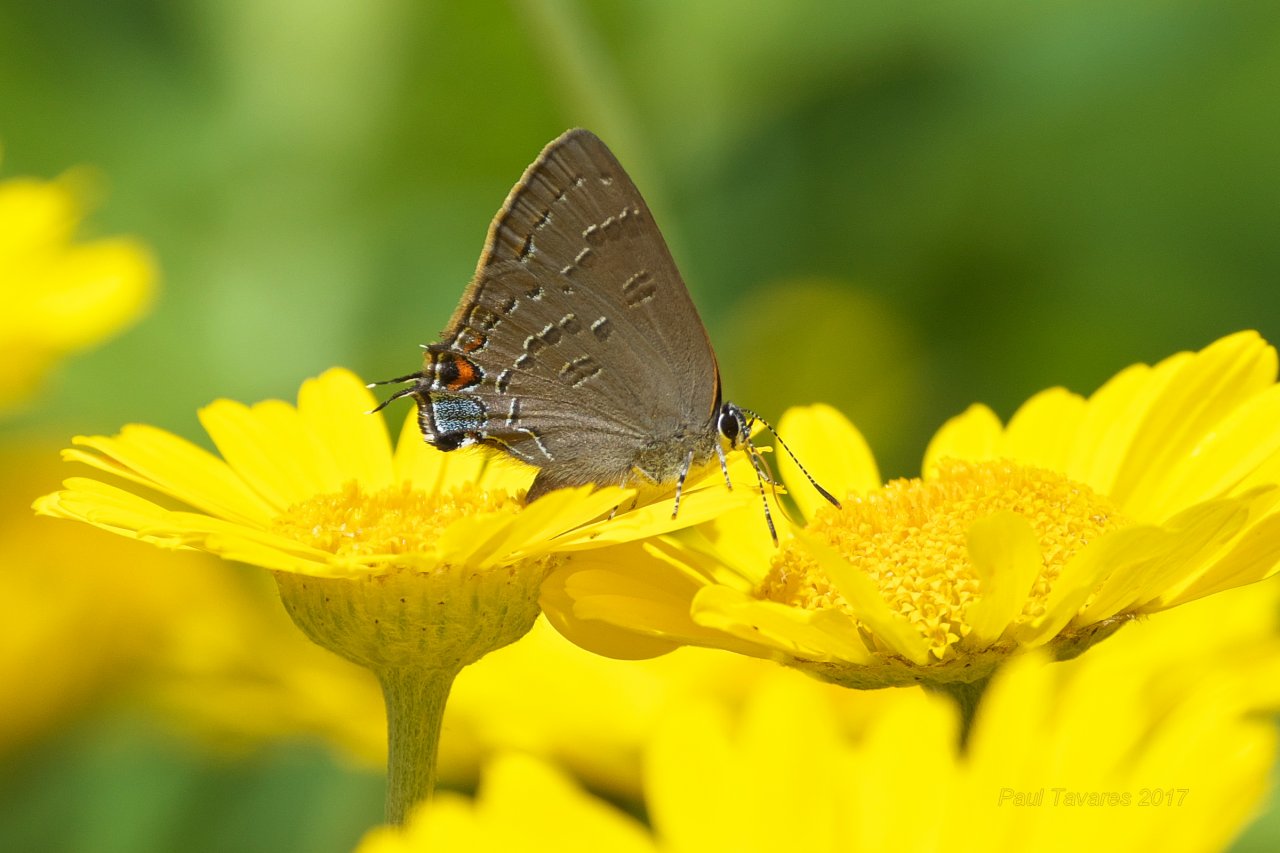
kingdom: Animalia
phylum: Arthropoda
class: Insecta
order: Lepidoptera
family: Lycaenidae
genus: Satyrium
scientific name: Satyrium calanus
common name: Banded Hairstreak
